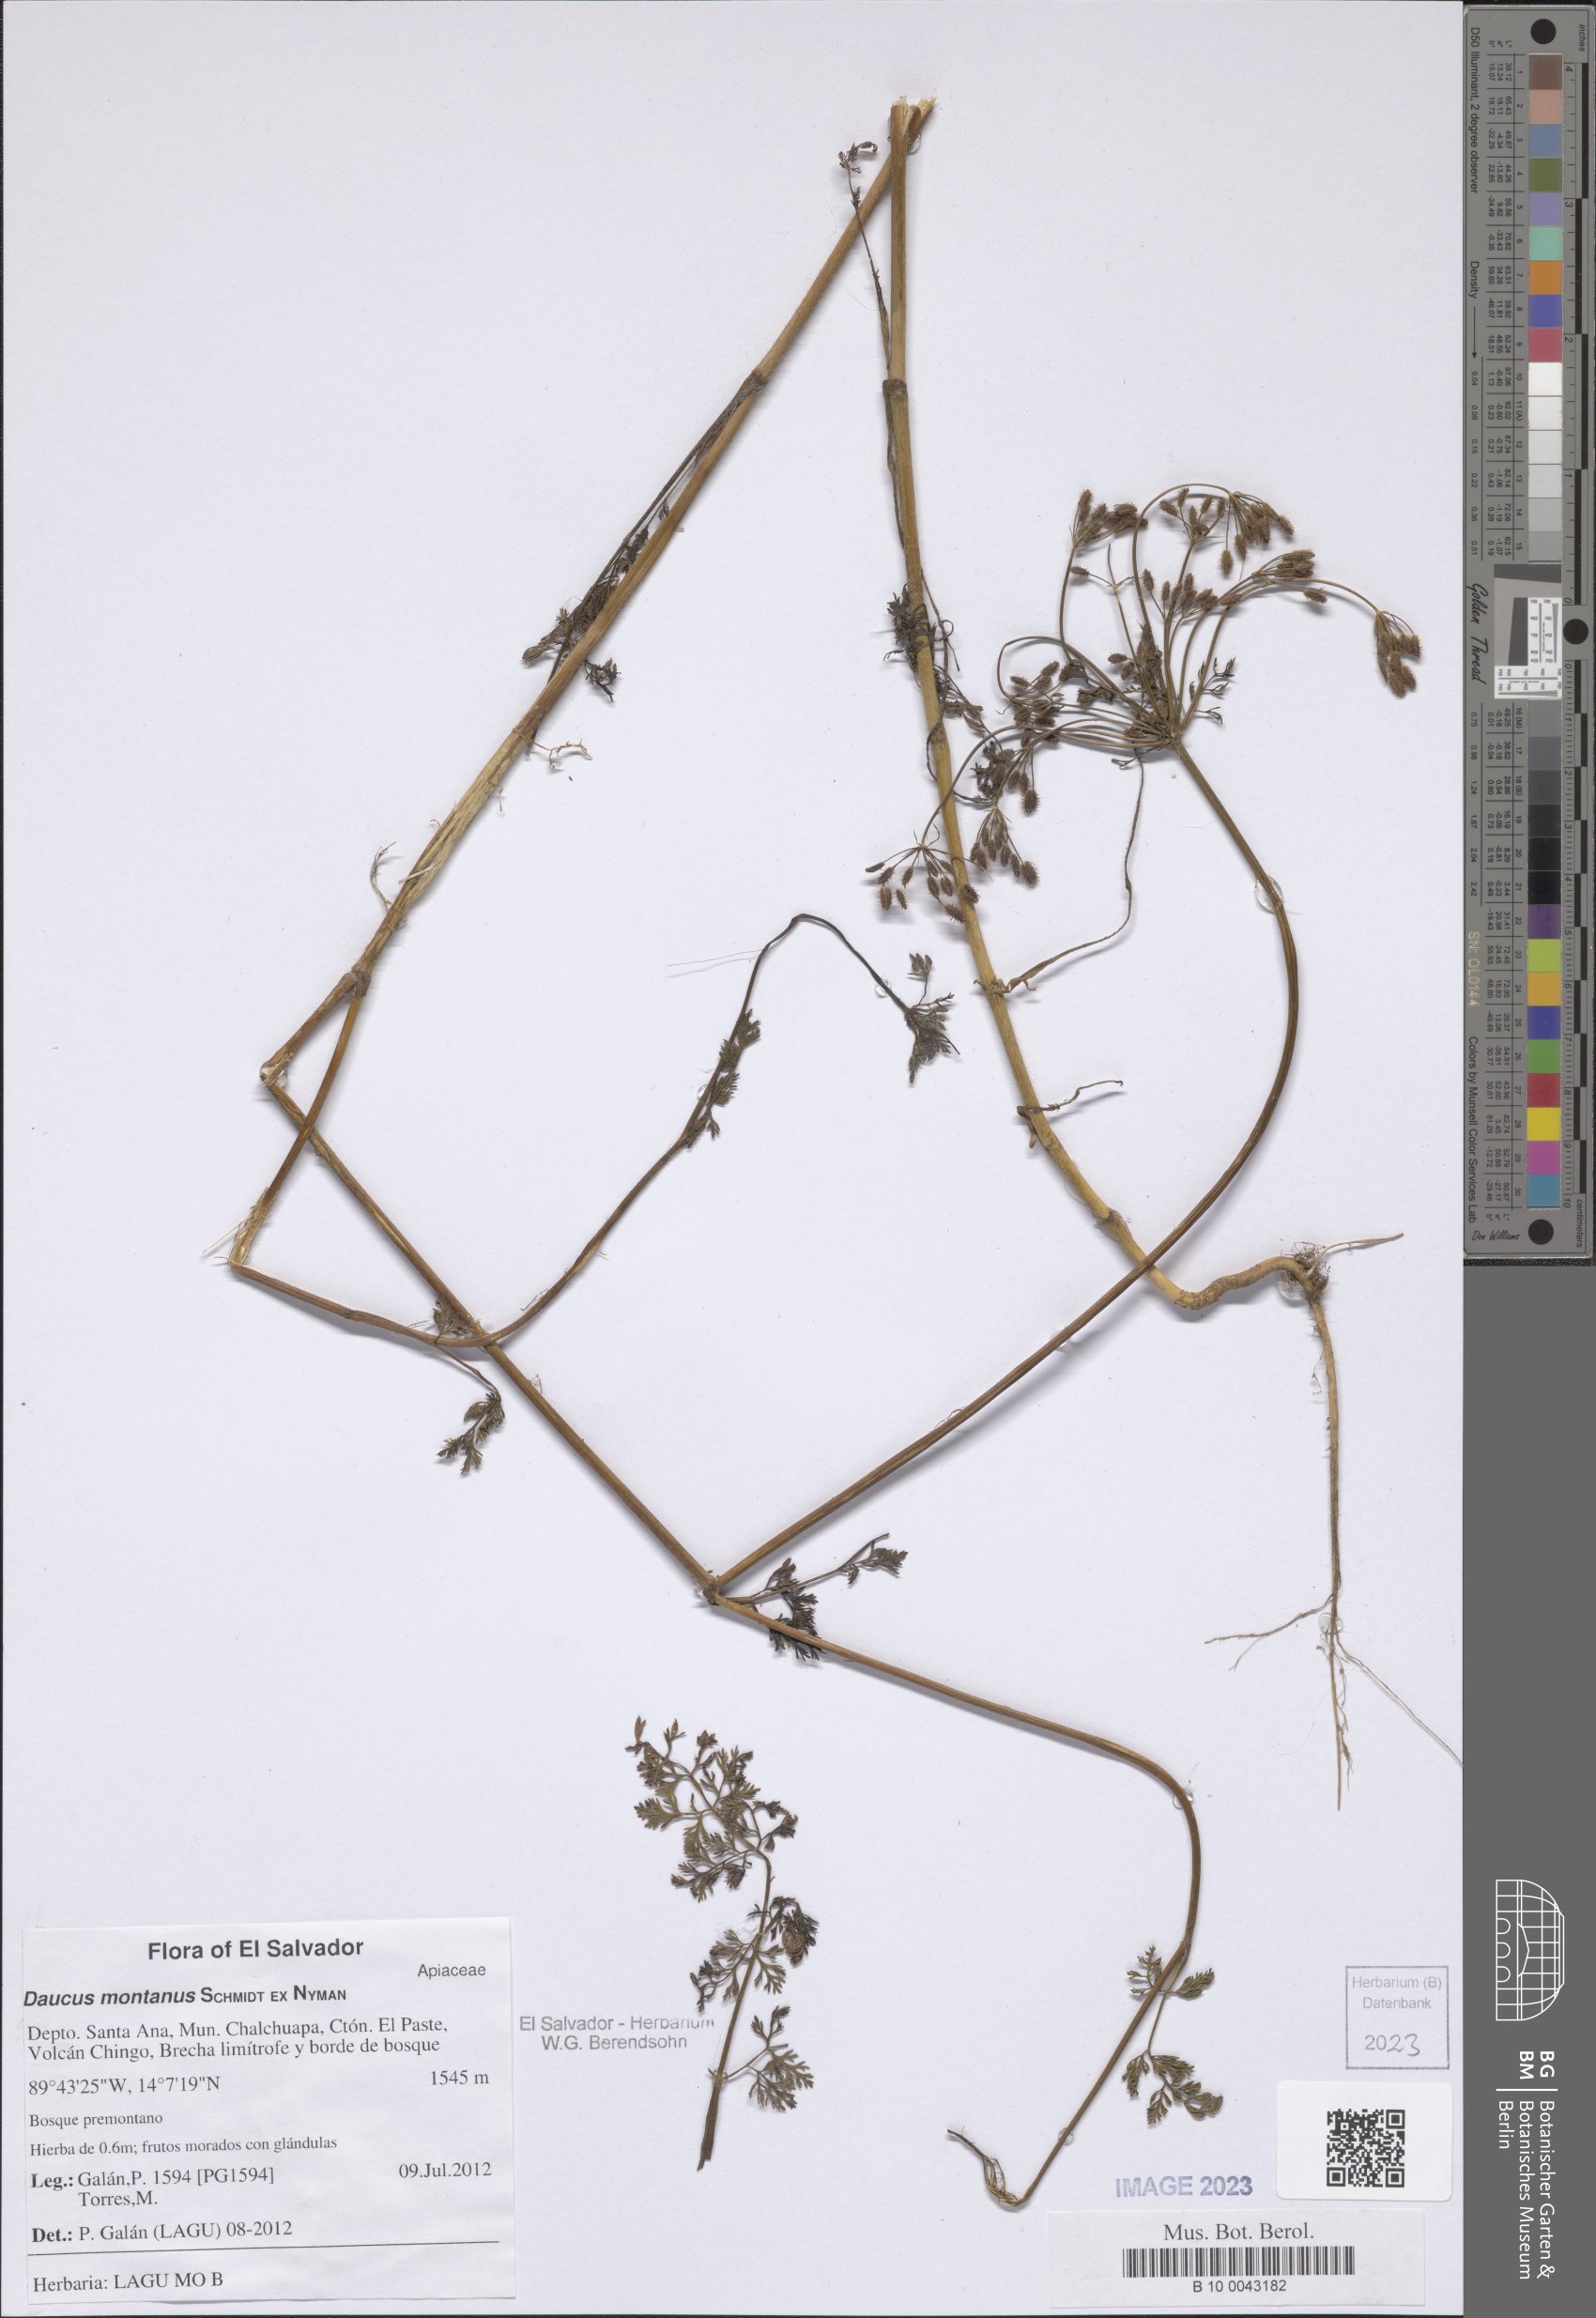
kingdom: Plantae
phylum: Tracheophyta
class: Magnoliopsida
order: Apiales
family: Apiaceae
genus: Daucus
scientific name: Daucus montanus
